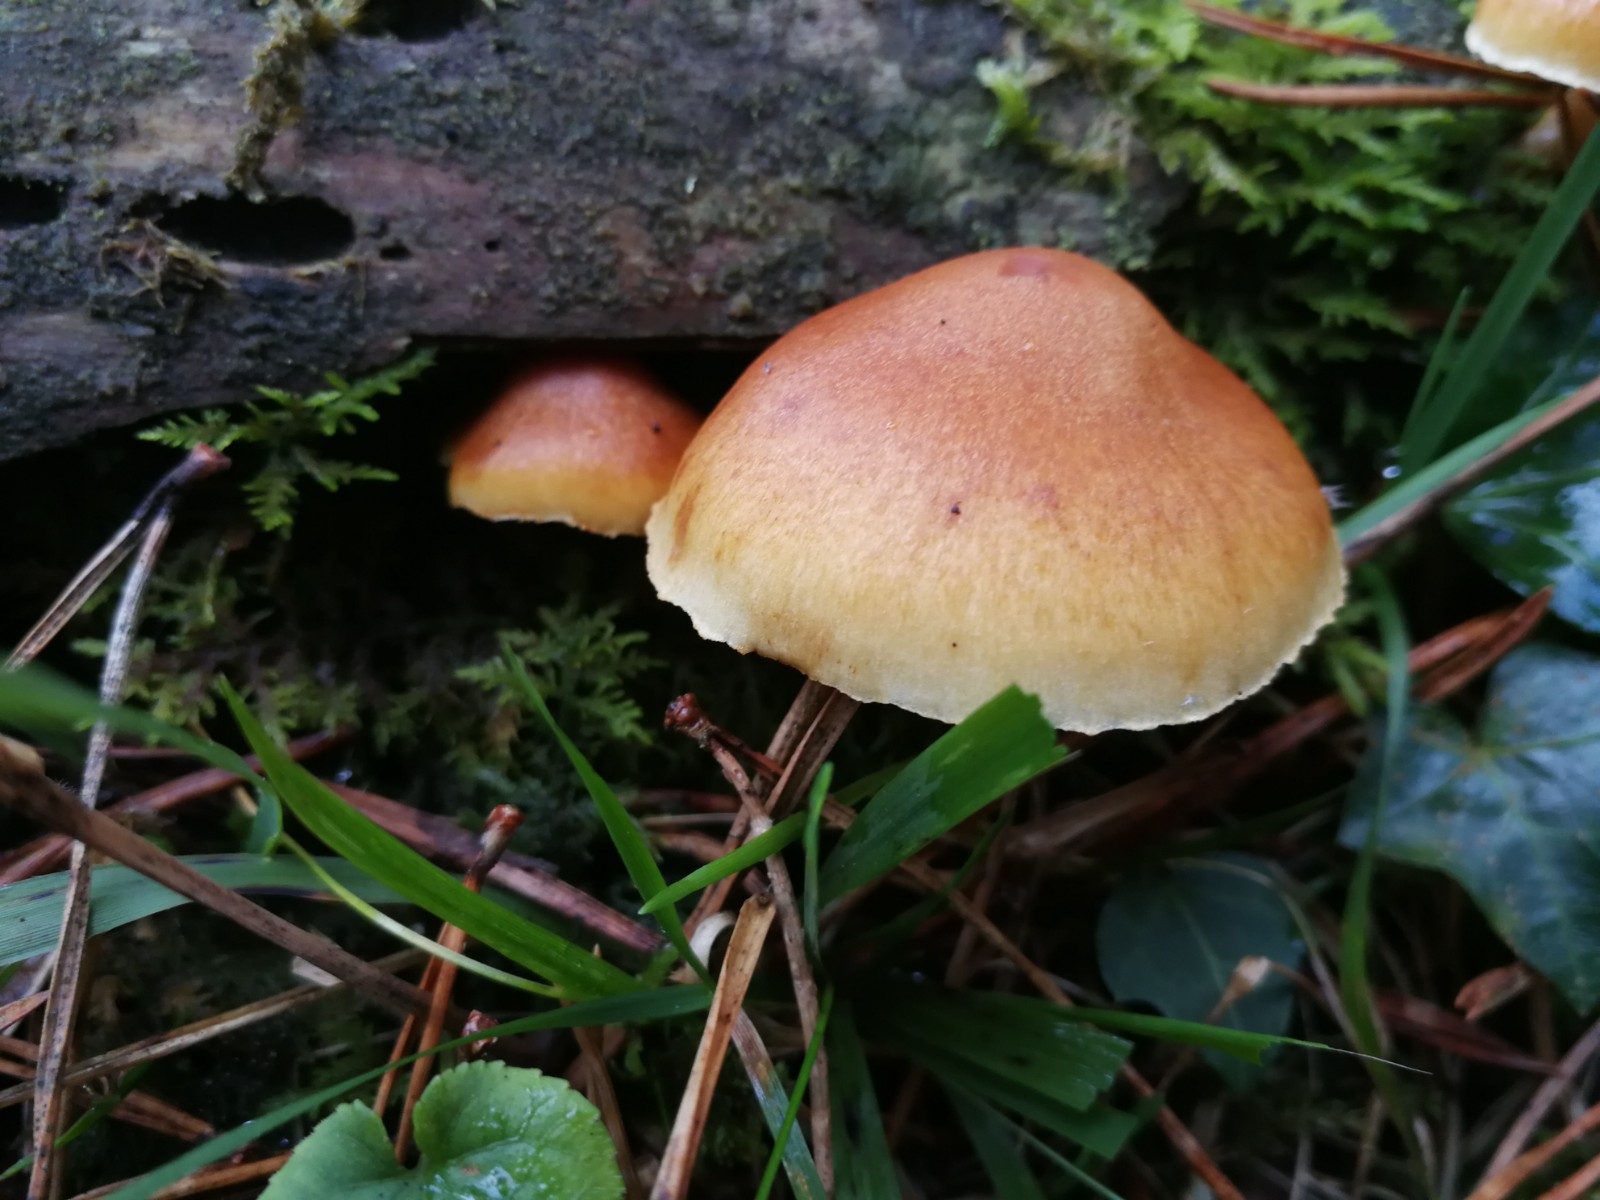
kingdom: Fungi
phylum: Basidiomycota
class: Agaricomycetes
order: Agaricales
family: Hymenogastraceae
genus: Gymnopilus
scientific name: Gymnopilus penetrans
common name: plettet flammehat
